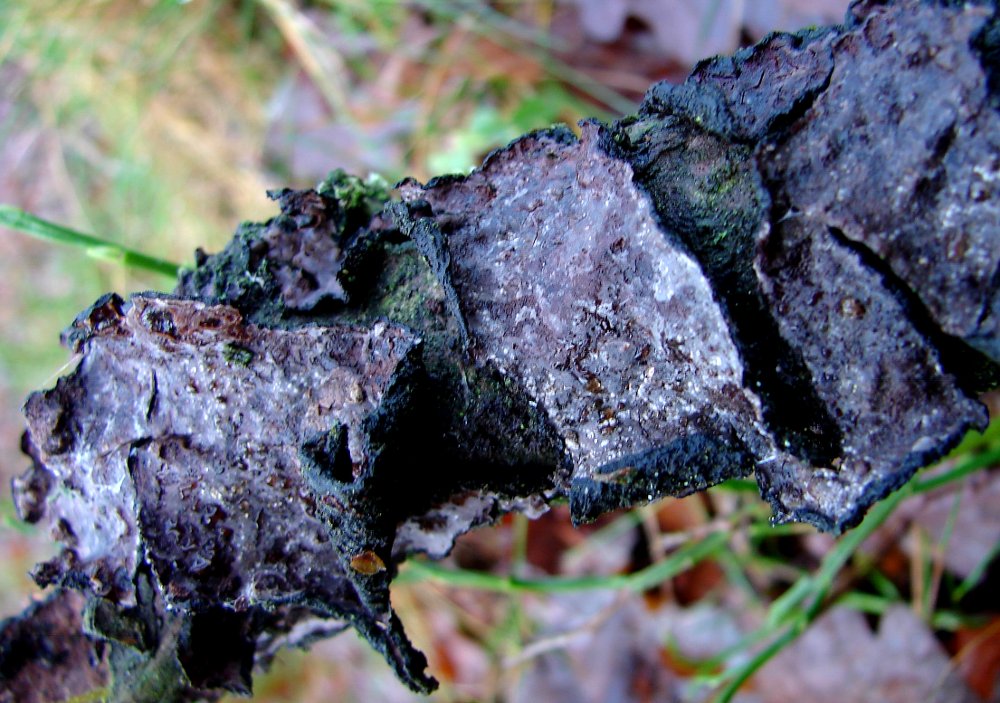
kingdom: Fungi
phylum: Basidiomycota
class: Agaricomycetes
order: Russulales
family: Peniophoraceae
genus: Peniophora
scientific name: Peniophora quercina
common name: ege-voksskind
